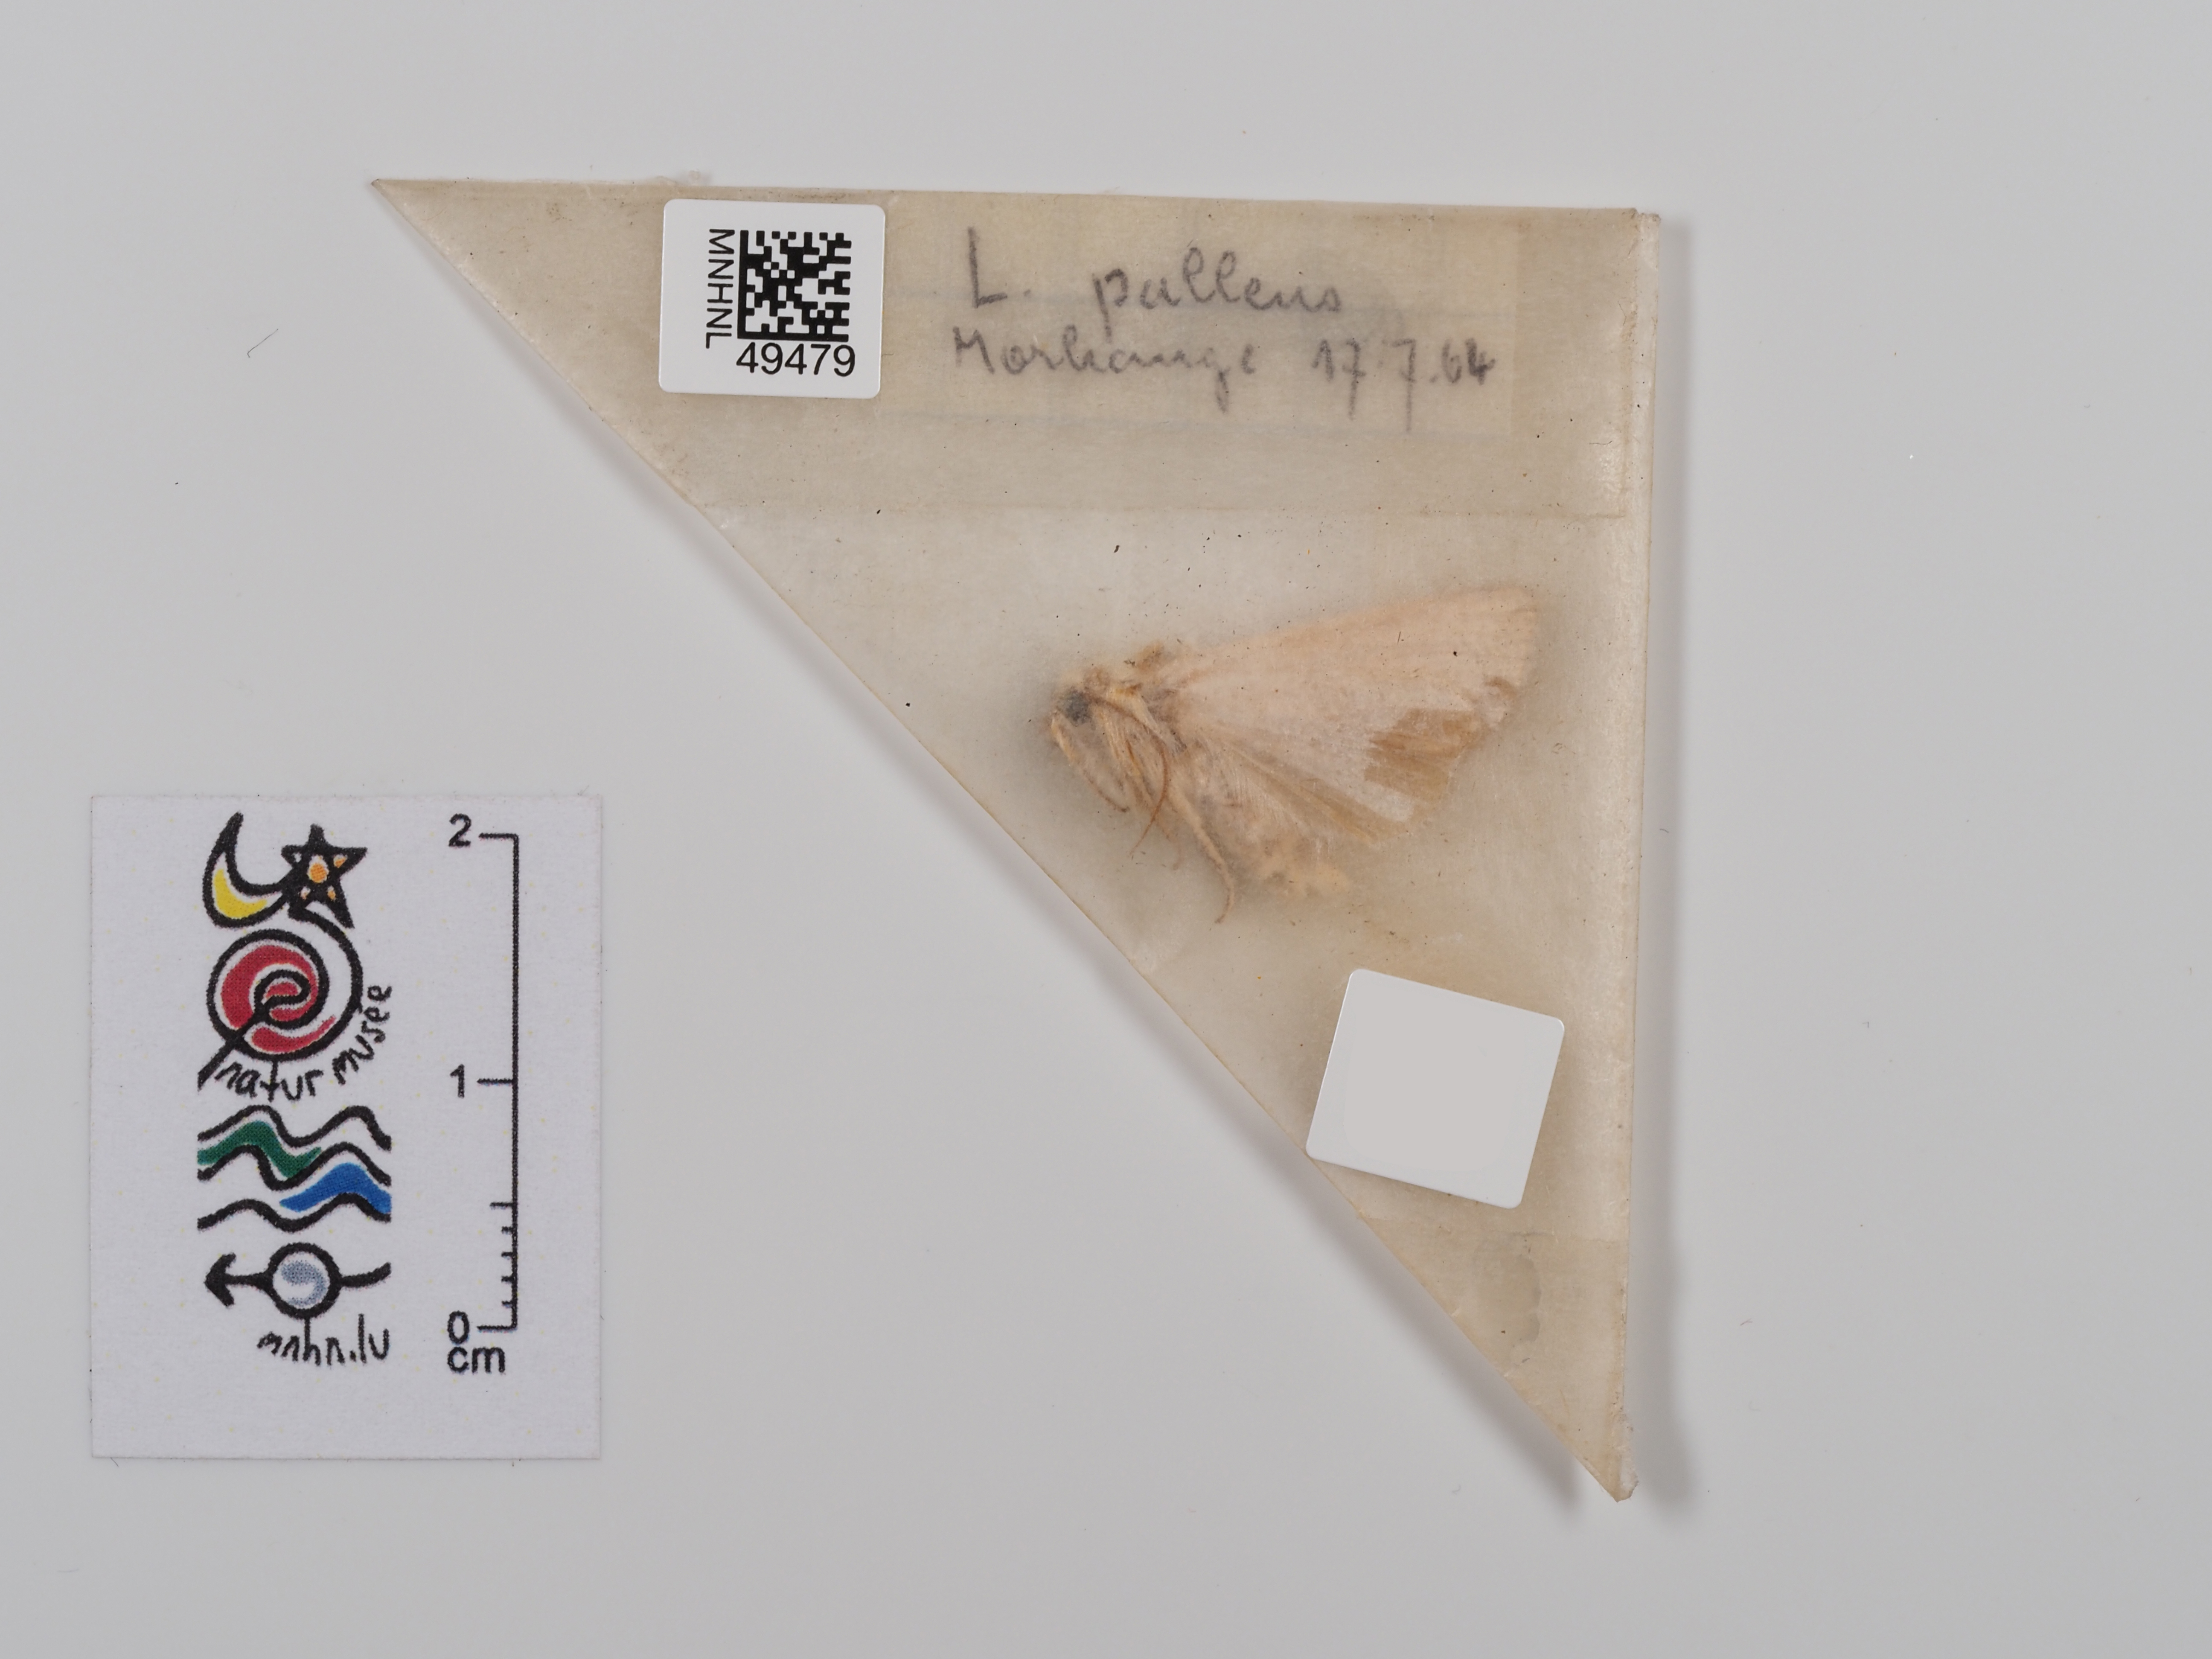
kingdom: Animalia
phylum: Arthropoda
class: Insecta
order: Lepidoptera
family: Noctuidae
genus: Mythimna
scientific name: Mythimna pallens
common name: Common wainscot
